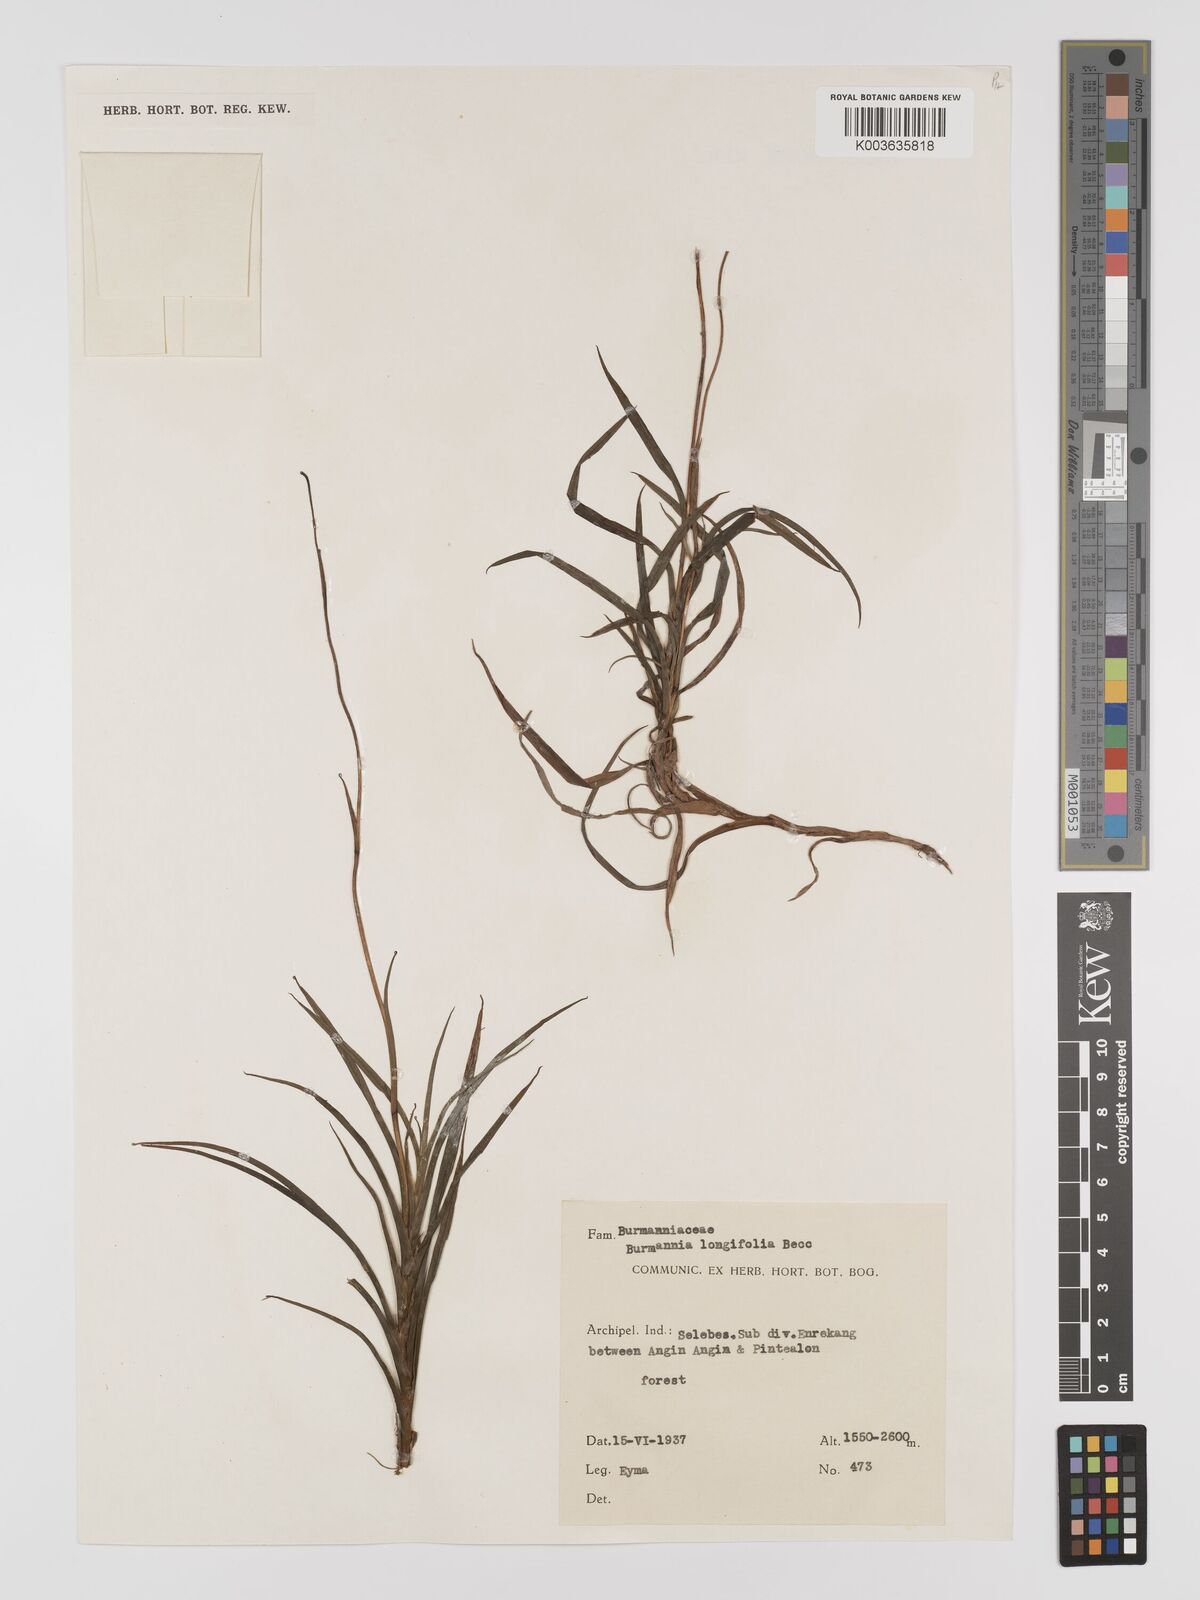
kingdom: Plantae
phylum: Tracheophyta
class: Liliopsida
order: Dioscoreales
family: Burmanniaceae
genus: Burmannia
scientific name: Burmannia longifolia
